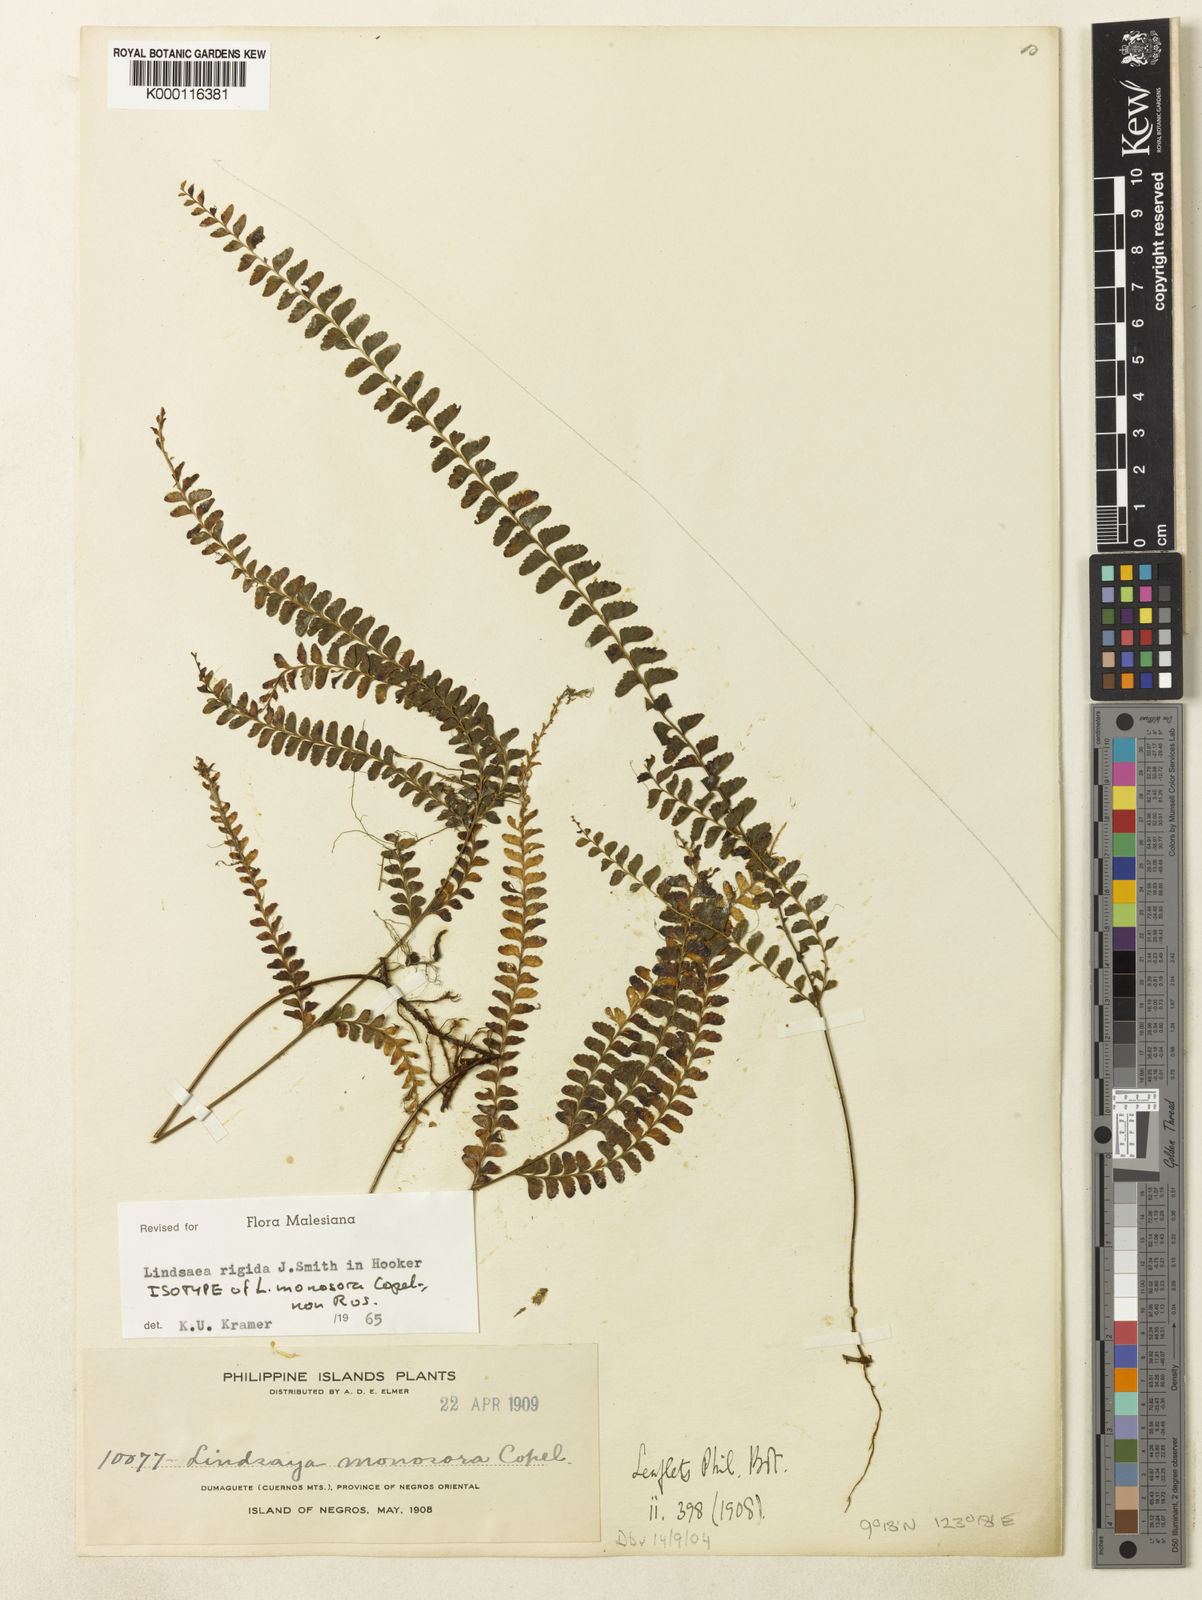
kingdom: Plantae
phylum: Tracheophyta
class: Polypodiopsida
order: Polypodiales
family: Lindsaeaceae
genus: Lindsaea
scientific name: Lindsaea rigida
